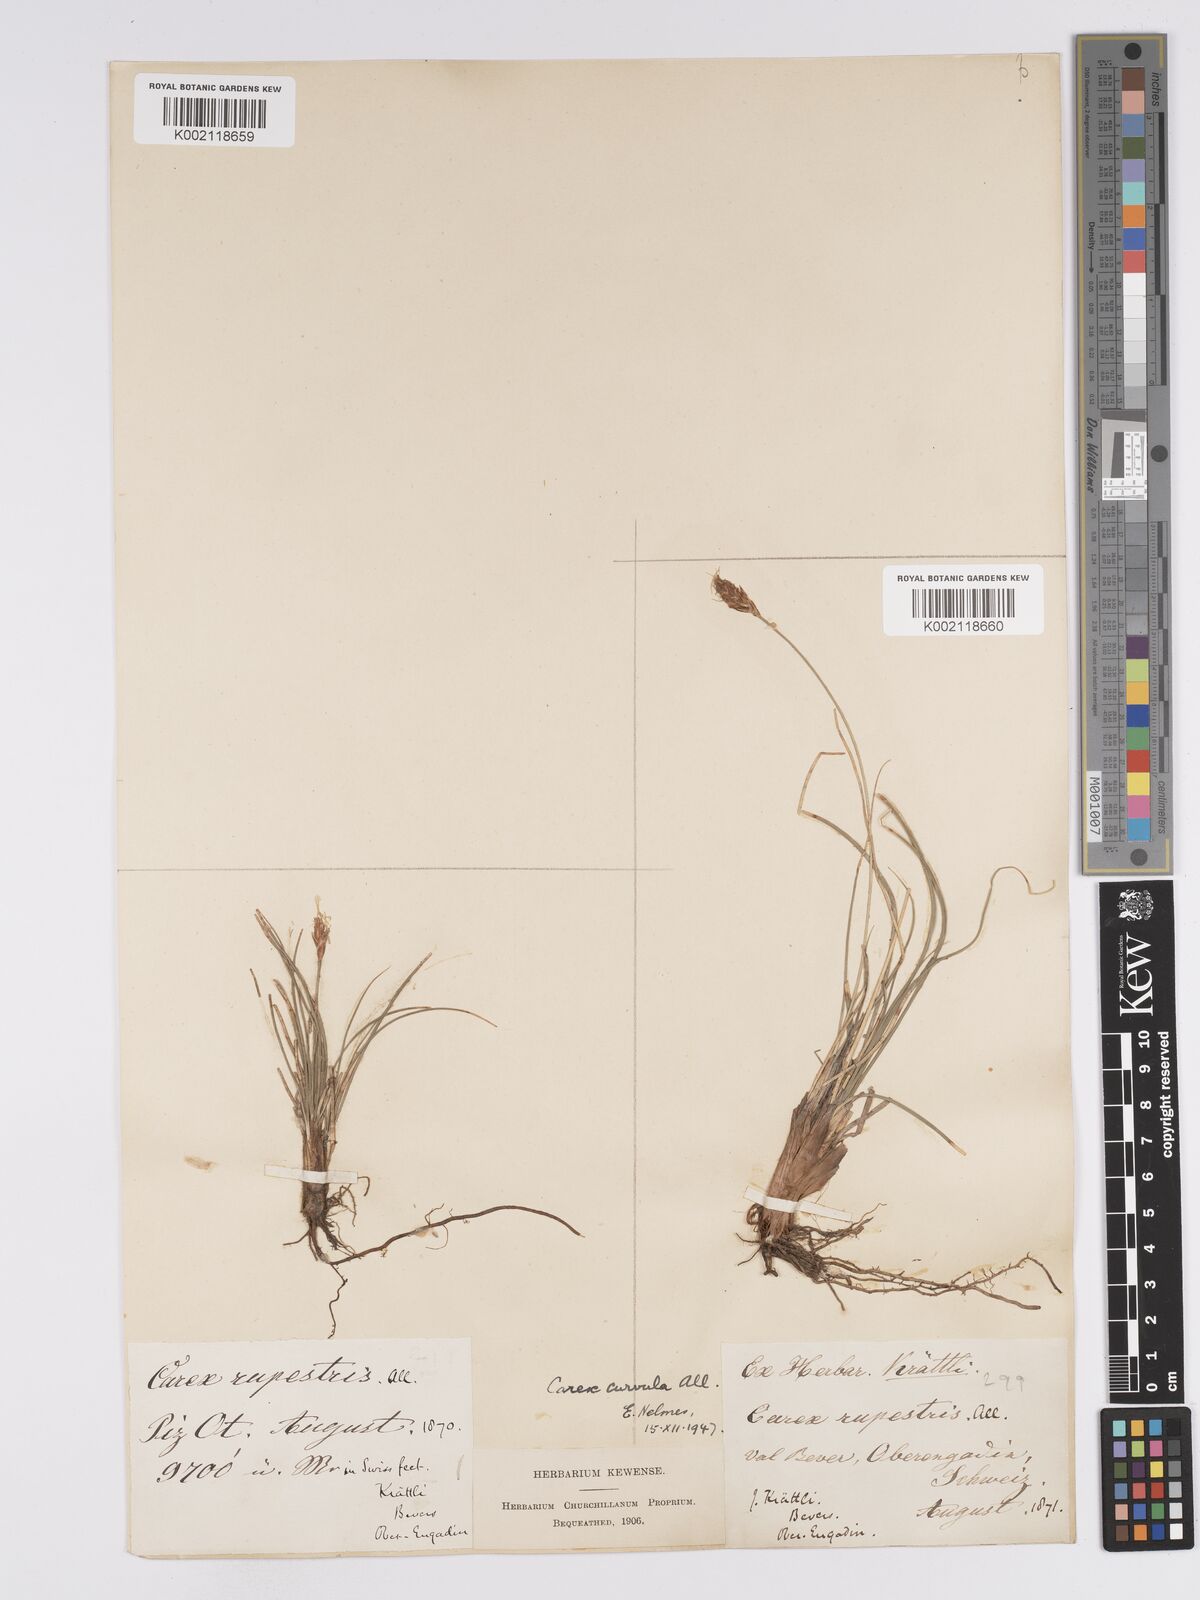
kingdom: Plantae
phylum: Tracheophyta
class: Liliopsida
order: Poales
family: Cyperaceae
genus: Carex
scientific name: Carex curvula
